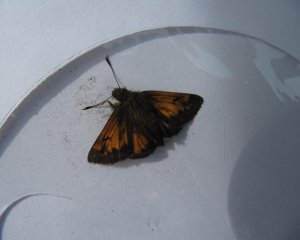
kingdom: Animalia
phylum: Arthropoda
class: Insecta
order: Lepidoptera
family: Hesperiidae
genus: Lon
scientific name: Lon hobomok
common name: Hobomok Skipper
